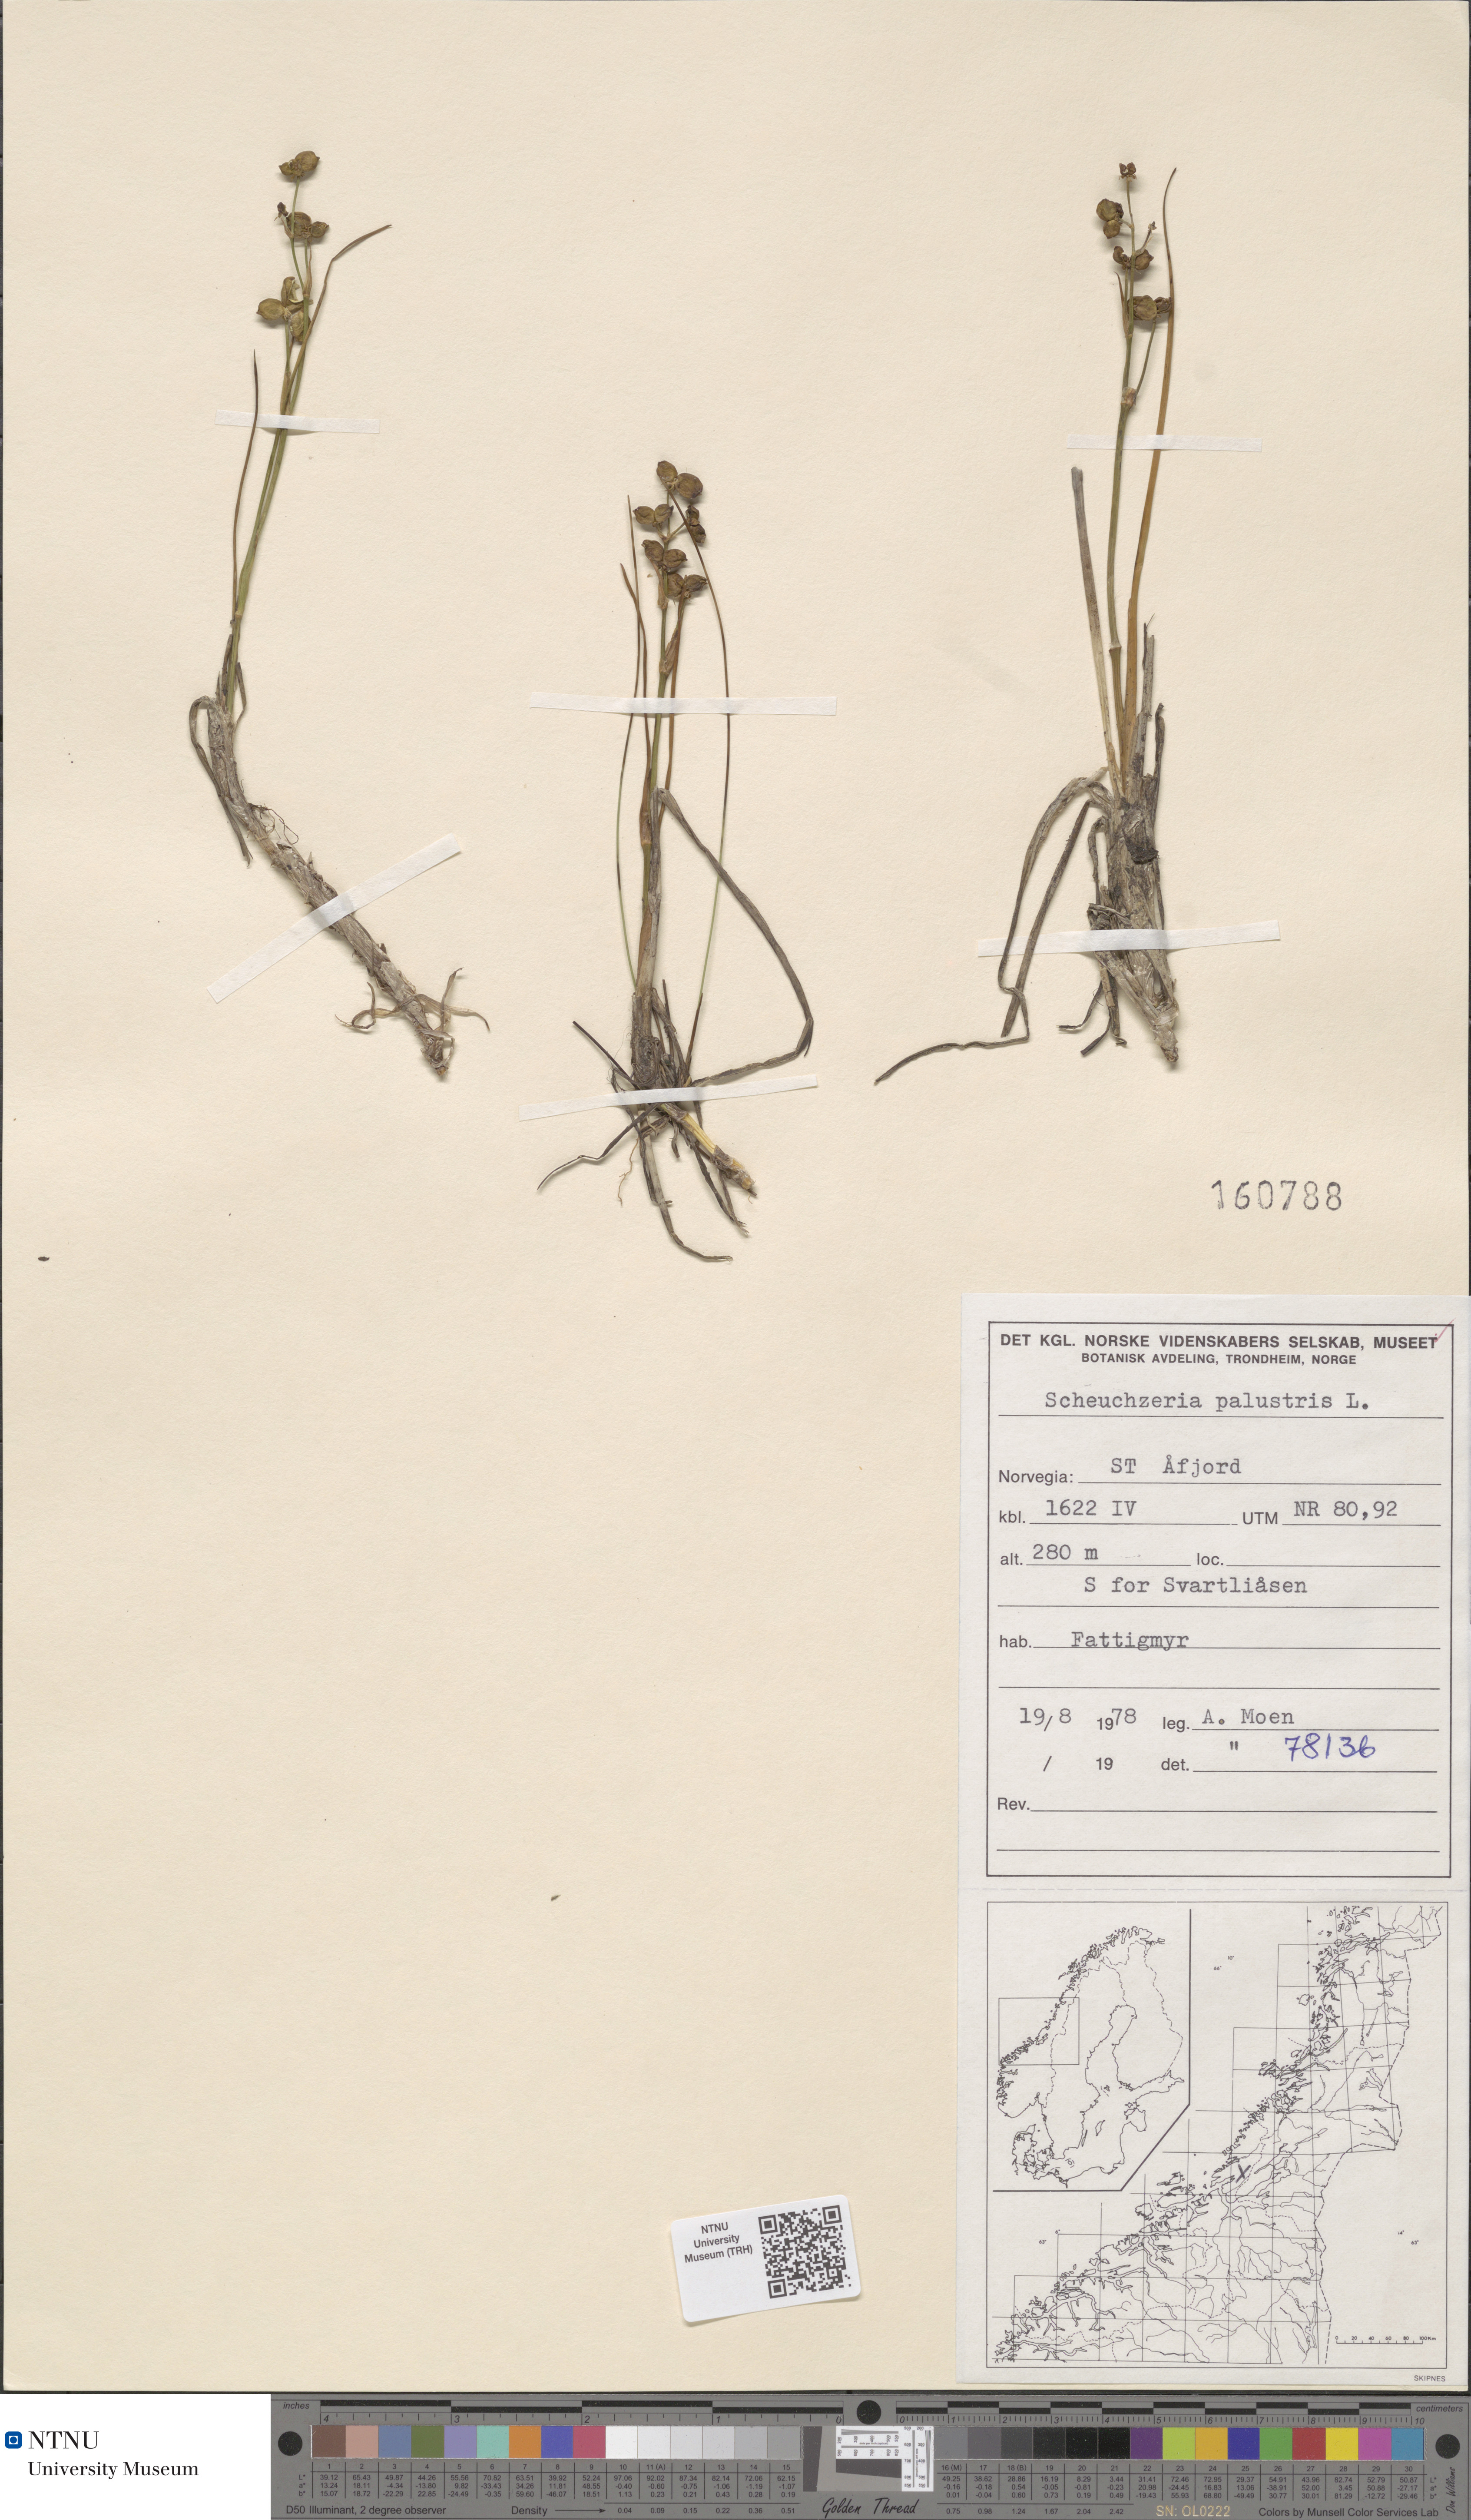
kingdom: Plantae
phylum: Tracheophyta
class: Liliopsida
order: Alismatales
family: Scheuchzeriaceae
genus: Scheuchzeria
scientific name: Scheuchzeria palustris
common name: Rannoch-rush
